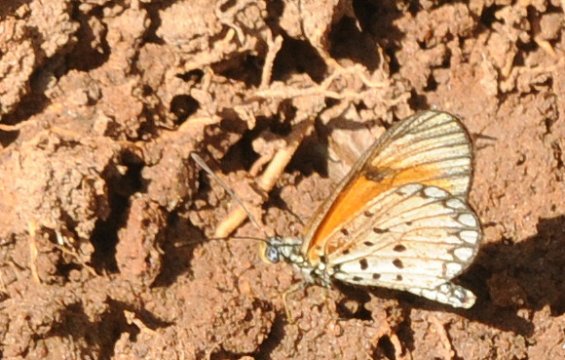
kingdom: Animalia
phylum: Arthropoda
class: Insecta
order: Lepidoptera
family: Nymphalidae
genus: Acraea
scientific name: Acraea
